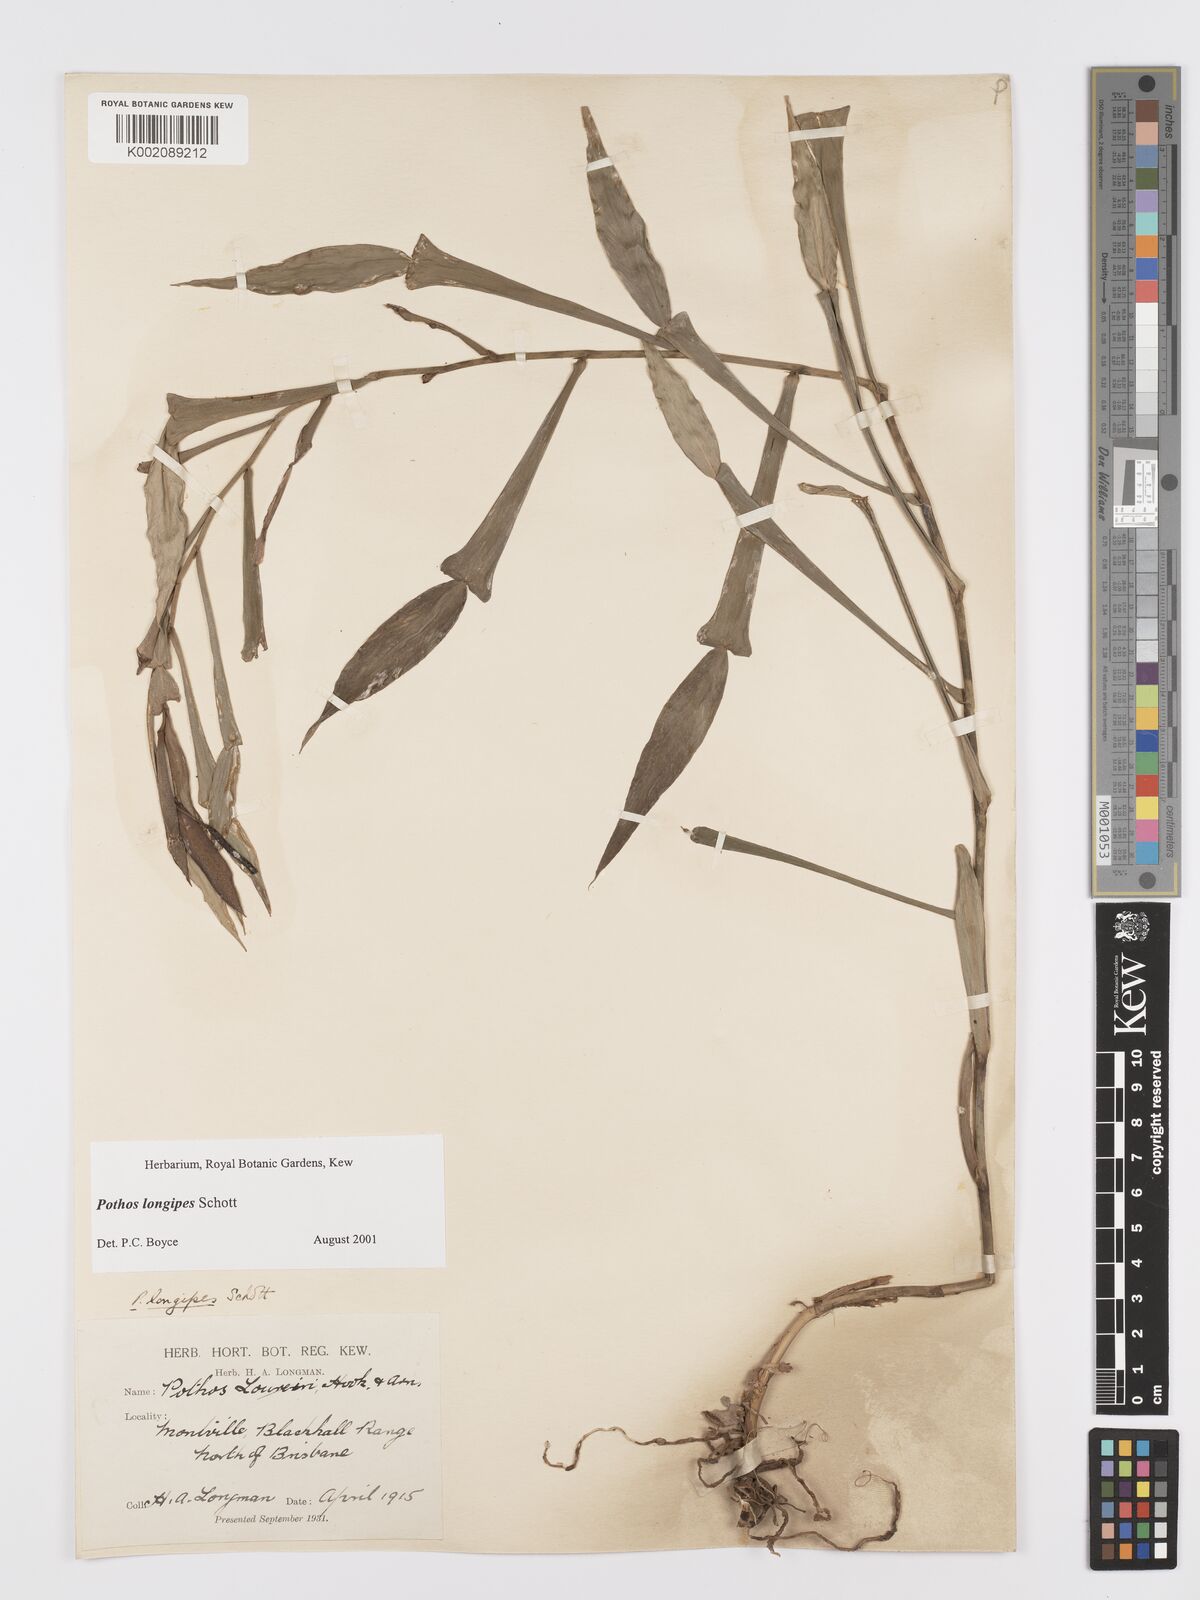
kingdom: Plantae
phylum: Tracheophyta
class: Liliopsida
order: Alismatales
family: Araceae
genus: Pothos
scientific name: Pothos longipes
